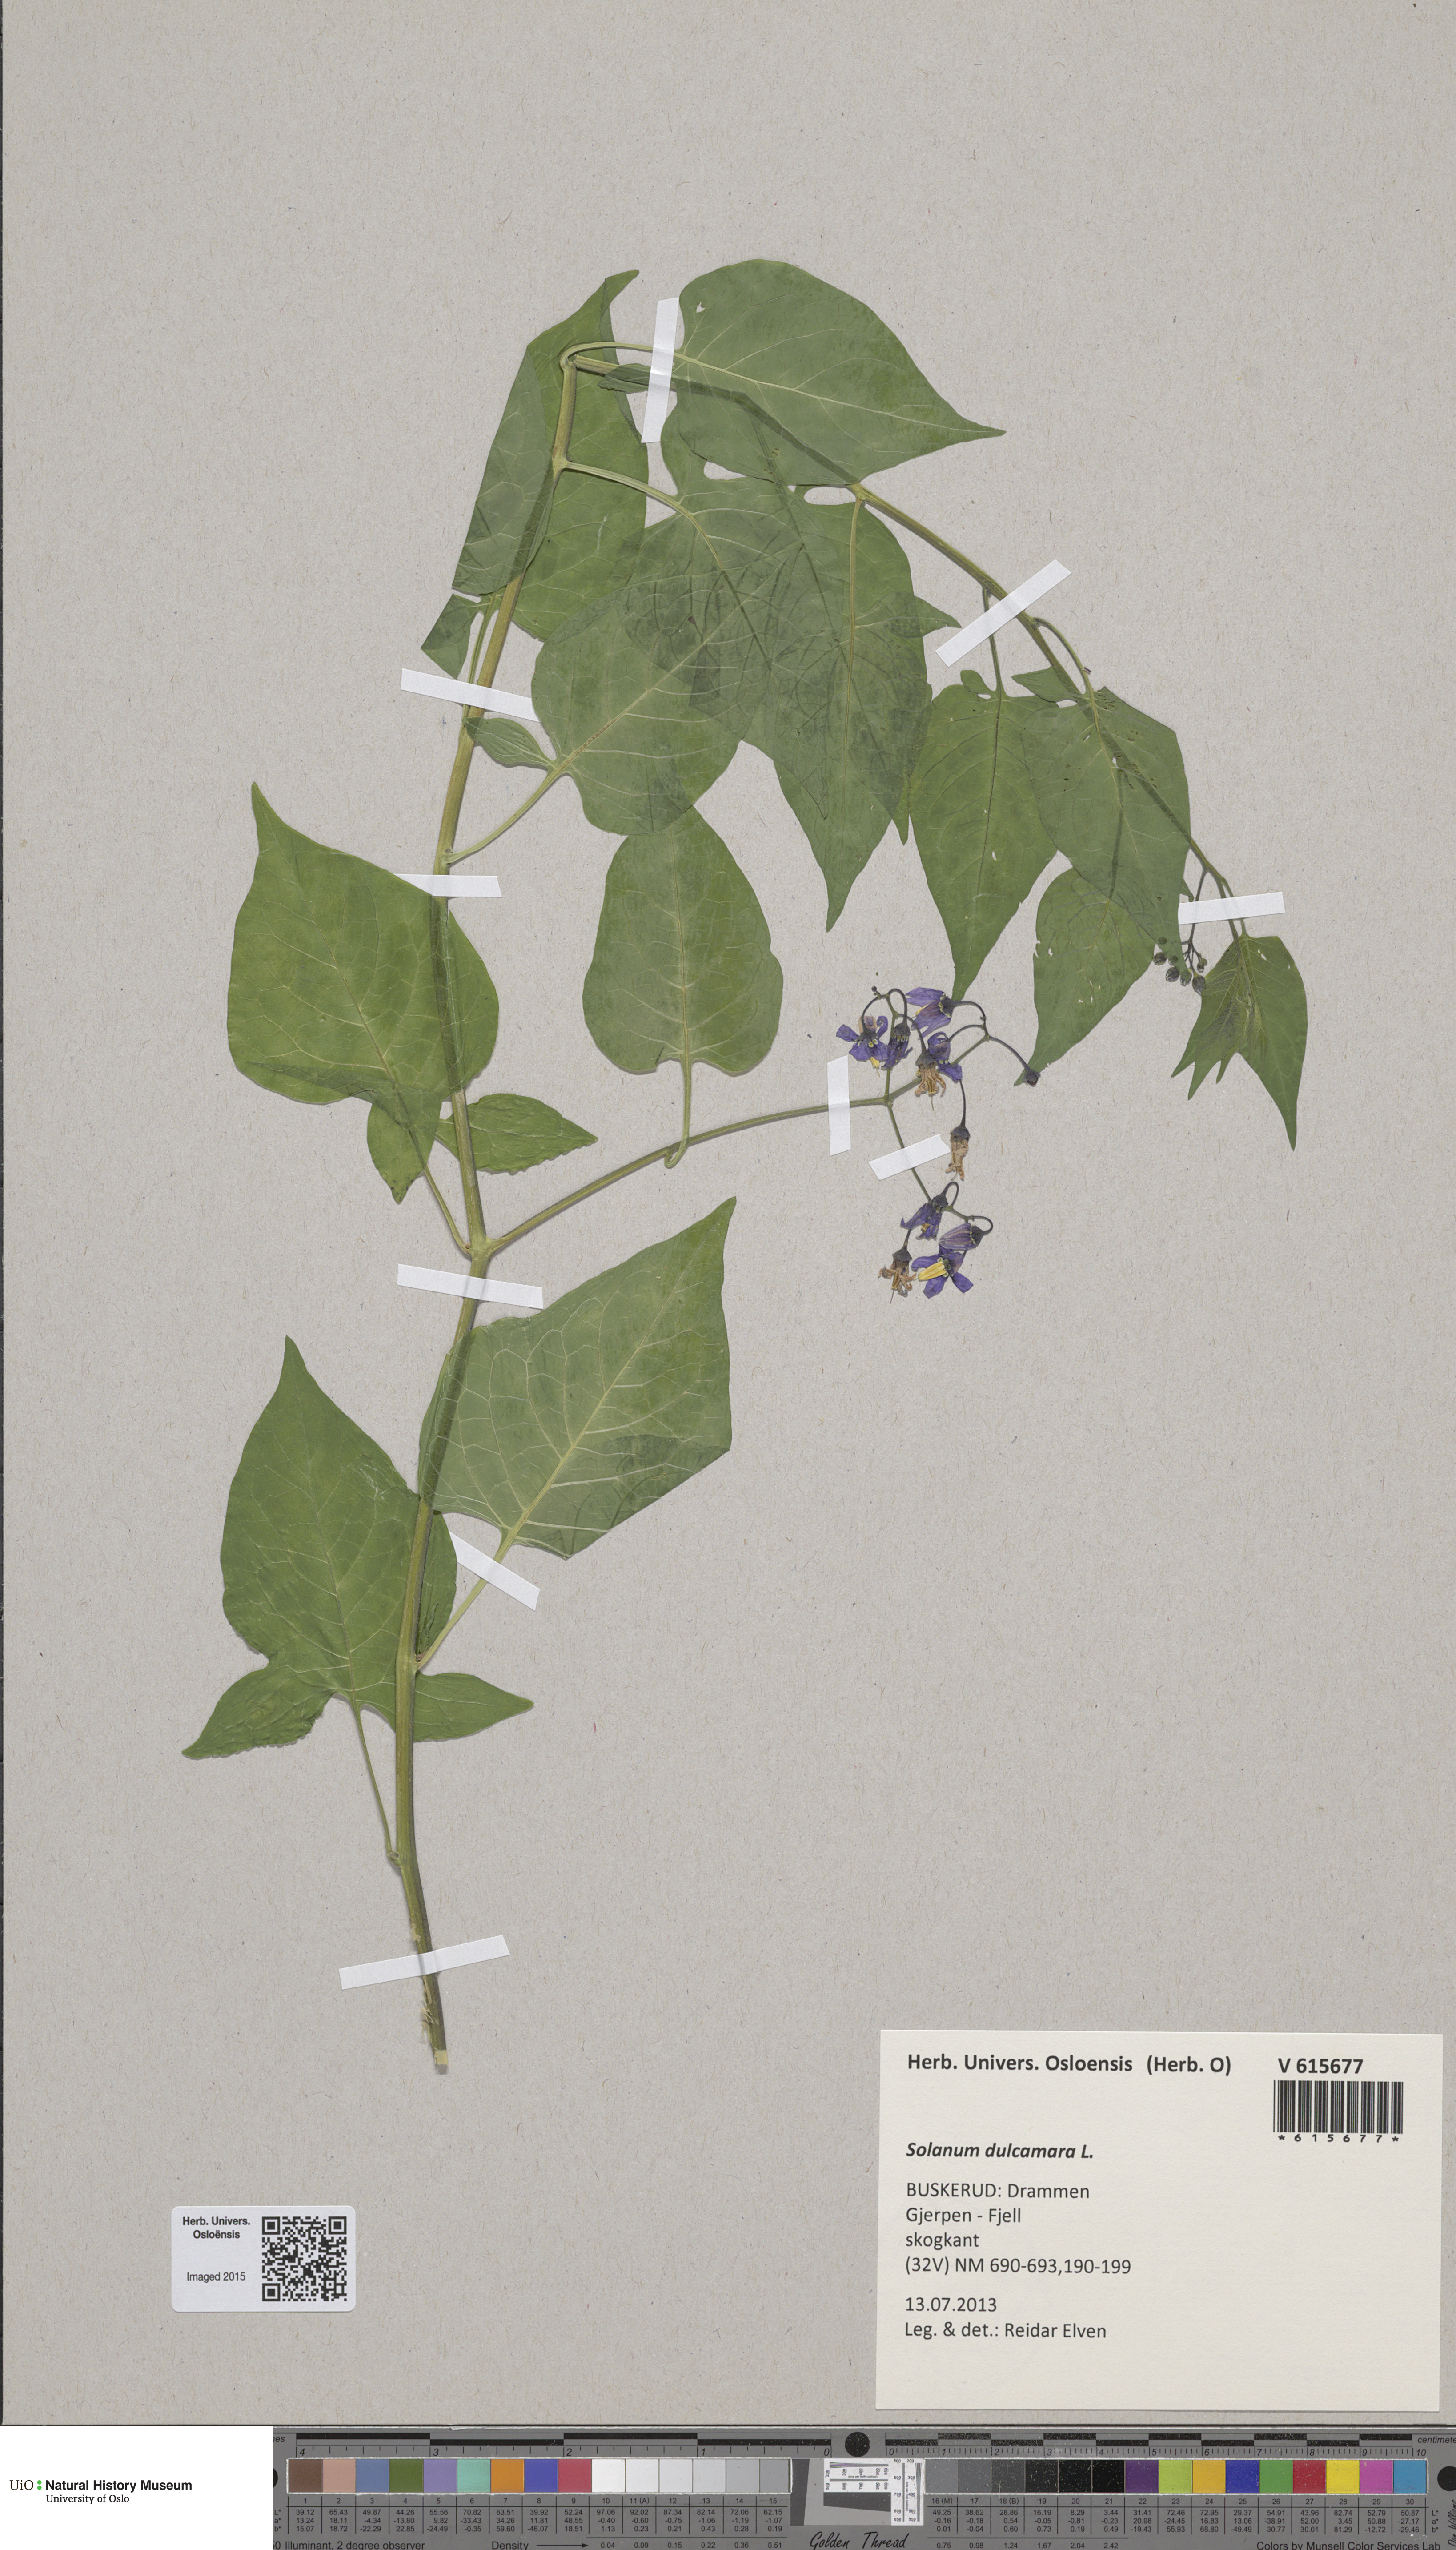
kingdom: Plantae
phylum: Tracheophyta
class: Magnoliopsida
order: Solanales
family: Solanaceae
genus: Solanum
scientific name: Solanum dulcamara
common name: Climbing nightshade
